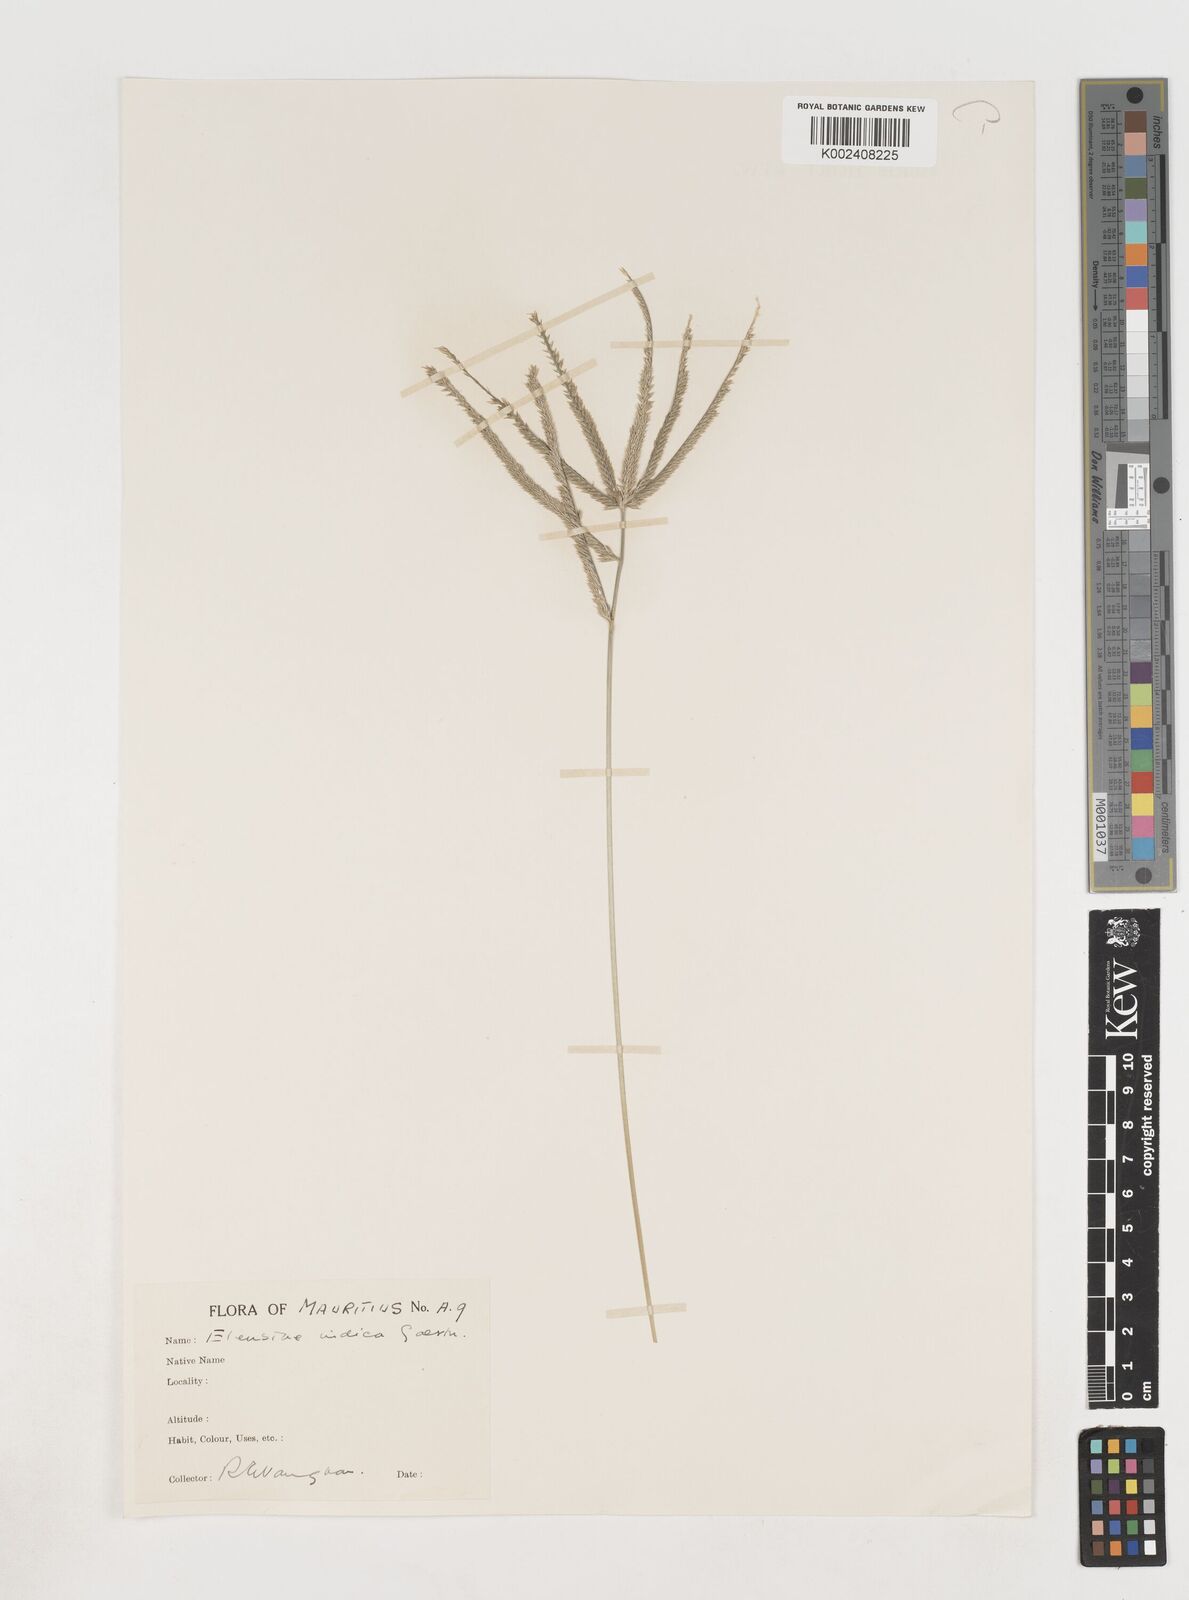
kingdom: Plantae
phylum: Tracheophyta
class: Liliopsida
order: Poales
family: Poaceae
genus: Eleusine
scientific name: Eleusine africana
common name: Wild african finger millet
